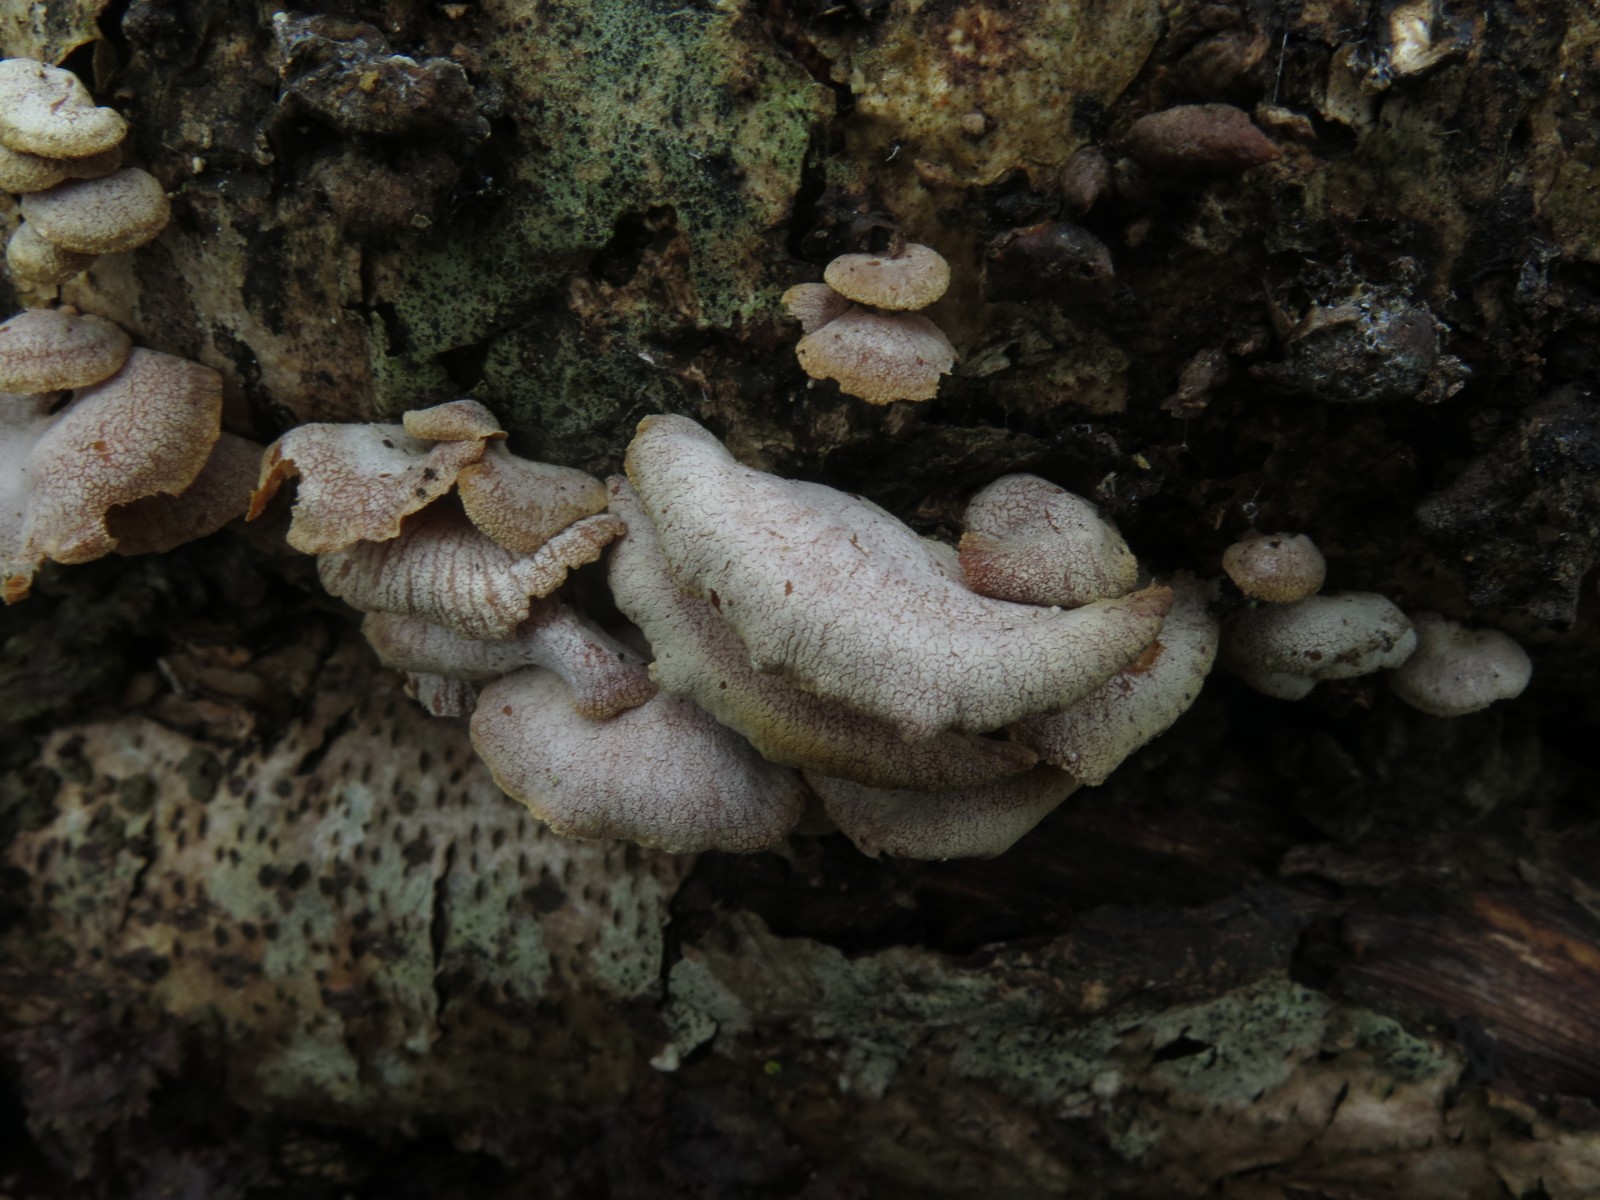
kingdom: Fungi
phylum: Basidiomycota
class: Agaricomycetes
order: Agaricales
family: Mycenaceae
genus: Panellus
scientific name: Panellus stipticus
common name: kliddet epaulethat
